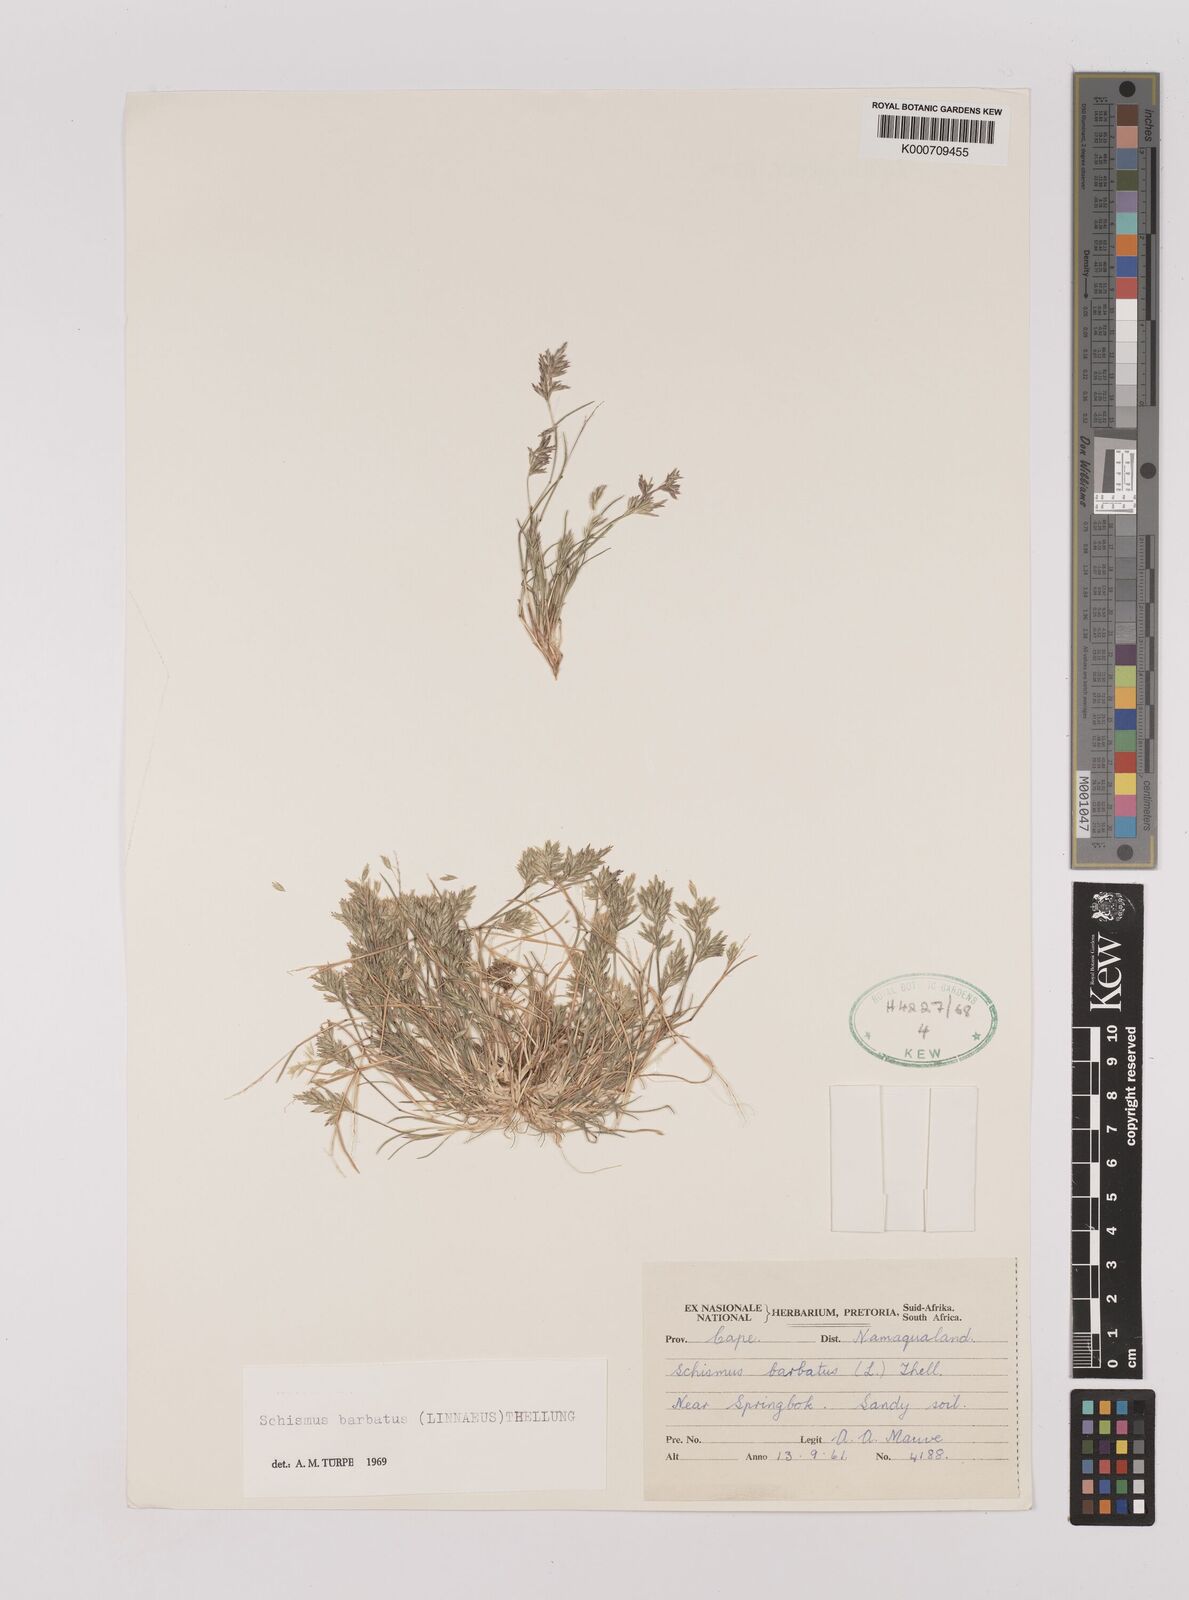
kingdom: Plantae
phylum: Tracheophyta
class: Liliopsida
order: Poales
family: Poaceae
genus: Schismus
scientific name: Schismus barbatus
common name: Kelch-grass
